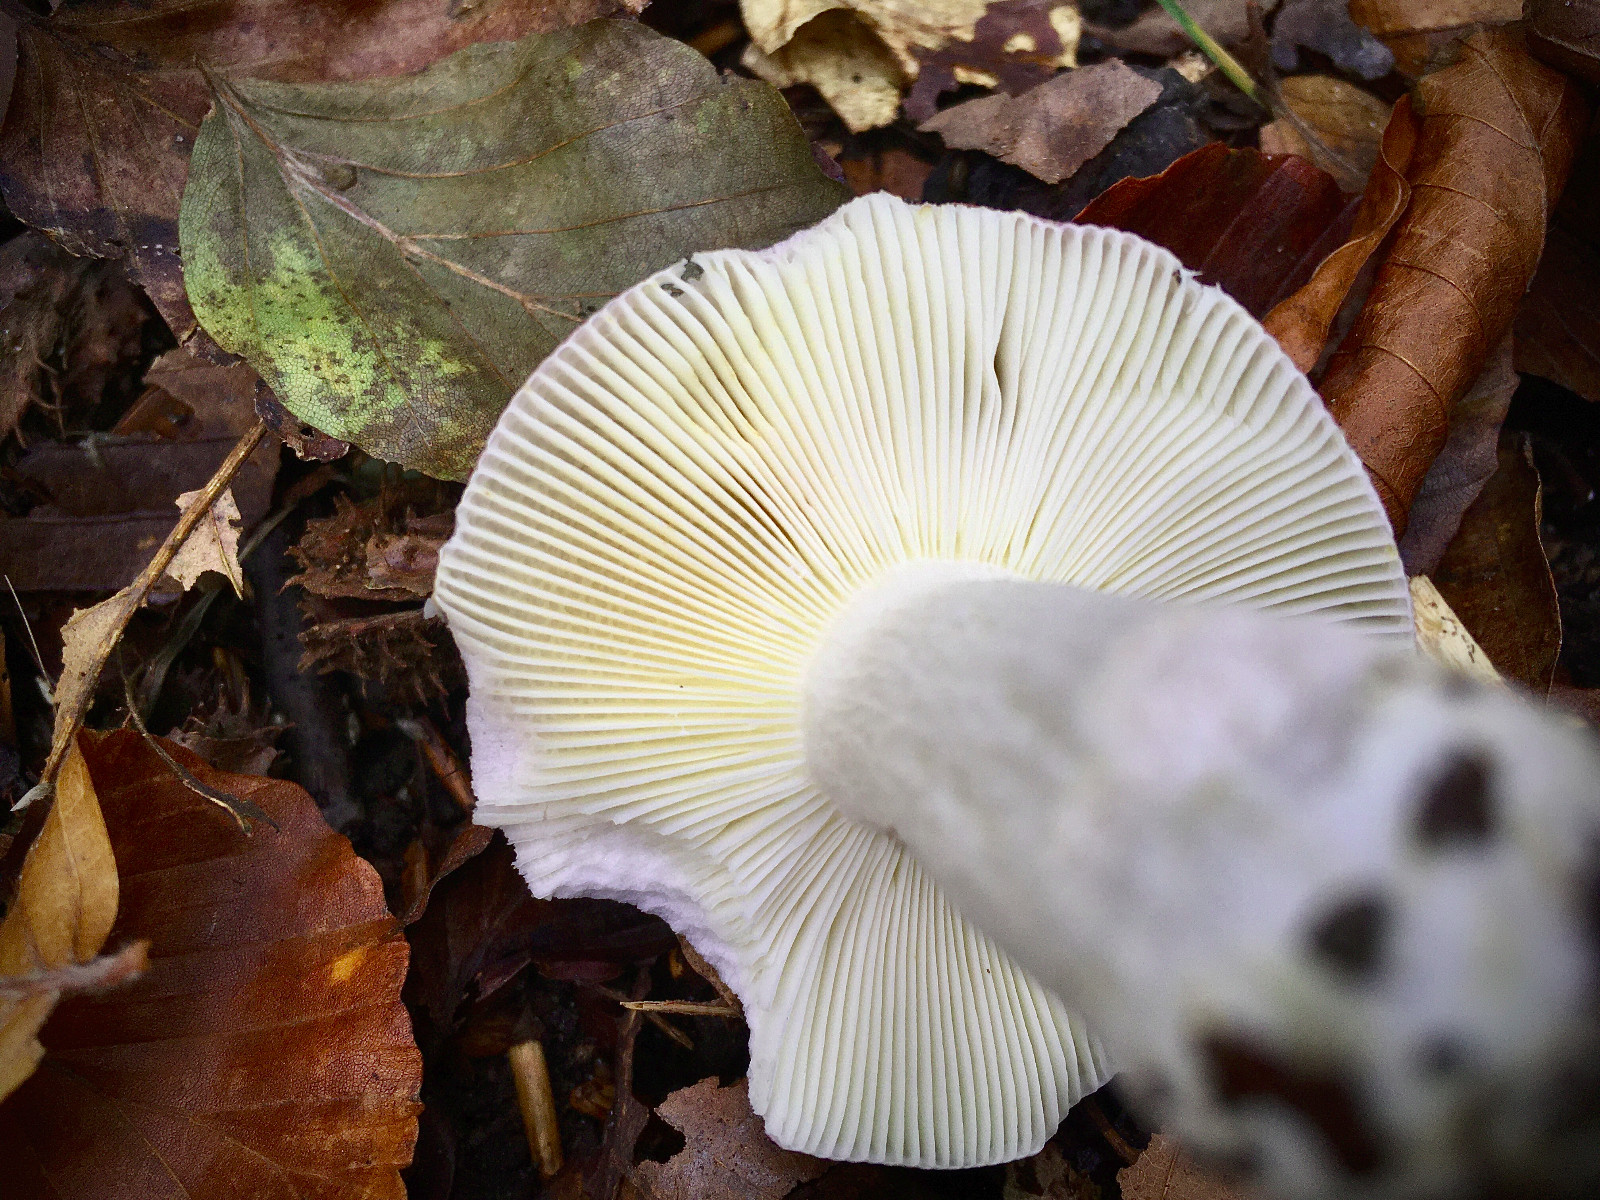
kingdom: Fungi
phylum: Basidiomycota
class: Agaricomycetes
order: Russulales
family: Russulaceae
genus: Russula
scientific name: Russula cyanoxantha
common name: broget skørhat
